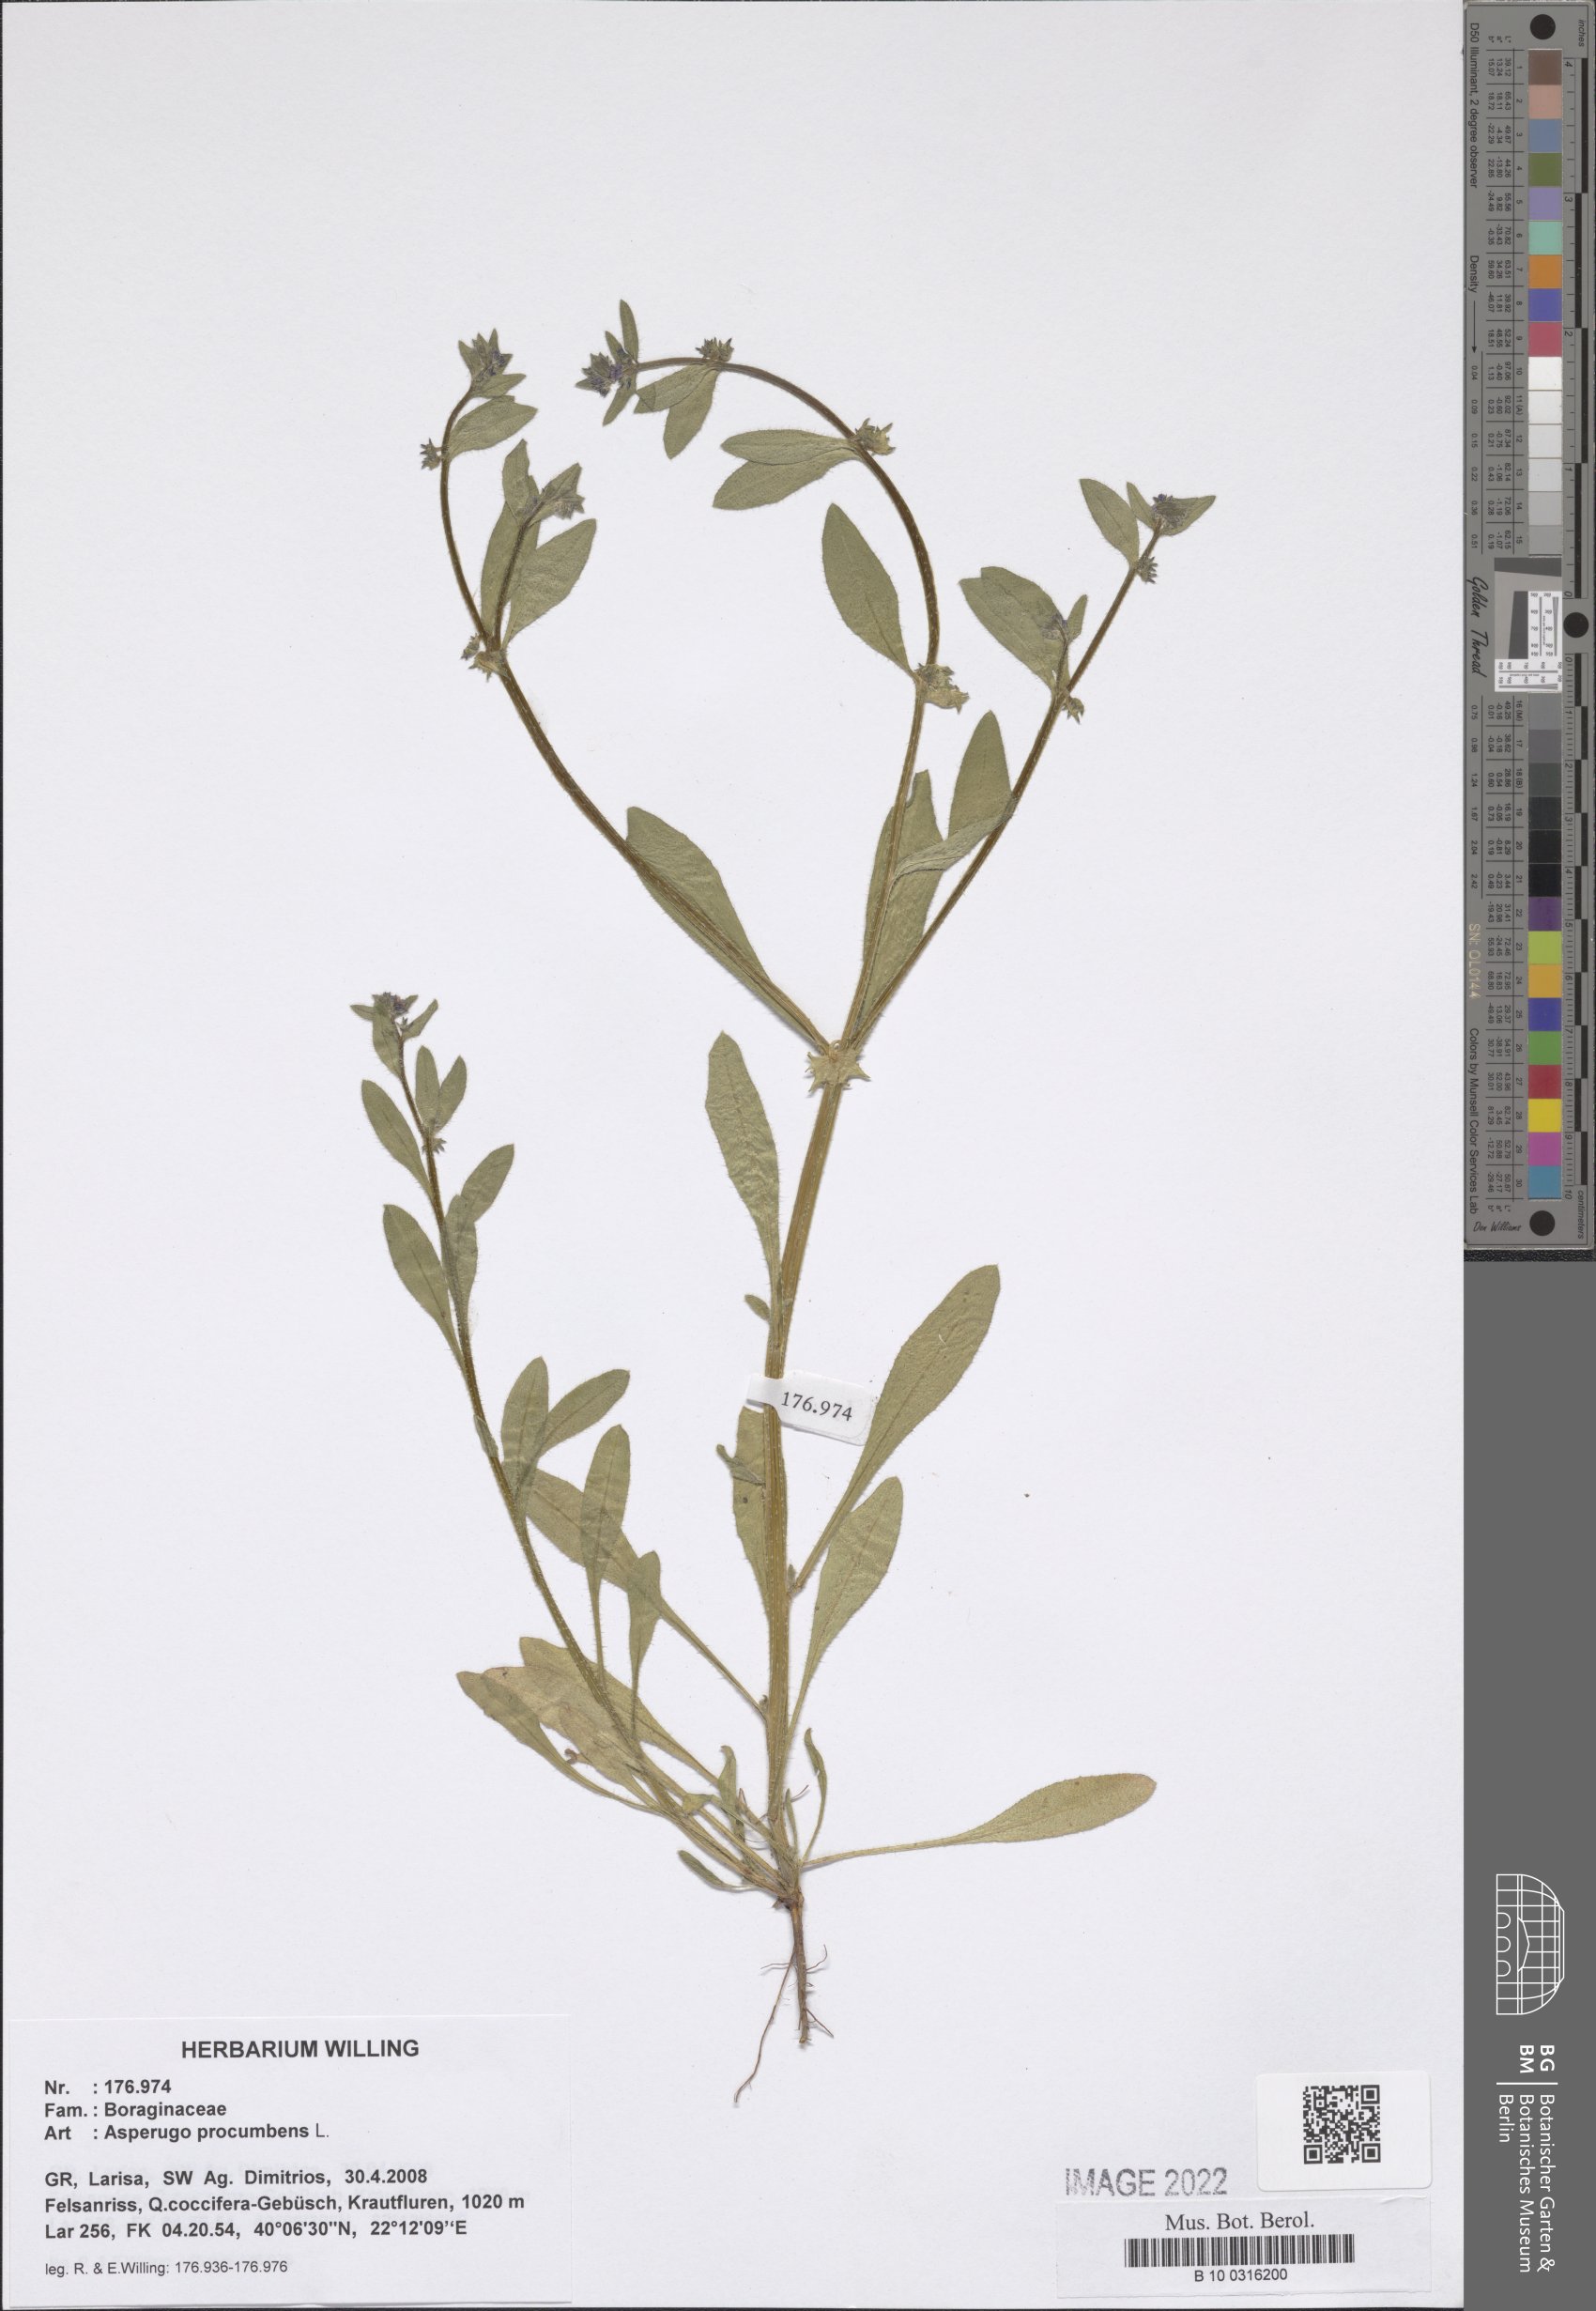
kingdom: Plantae
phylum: Tracheophyta
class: Magnoliopsida
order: Boraginales
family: Boraginaceae
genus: Asperugo
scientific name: Asperugo procumbens
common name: Madwort
